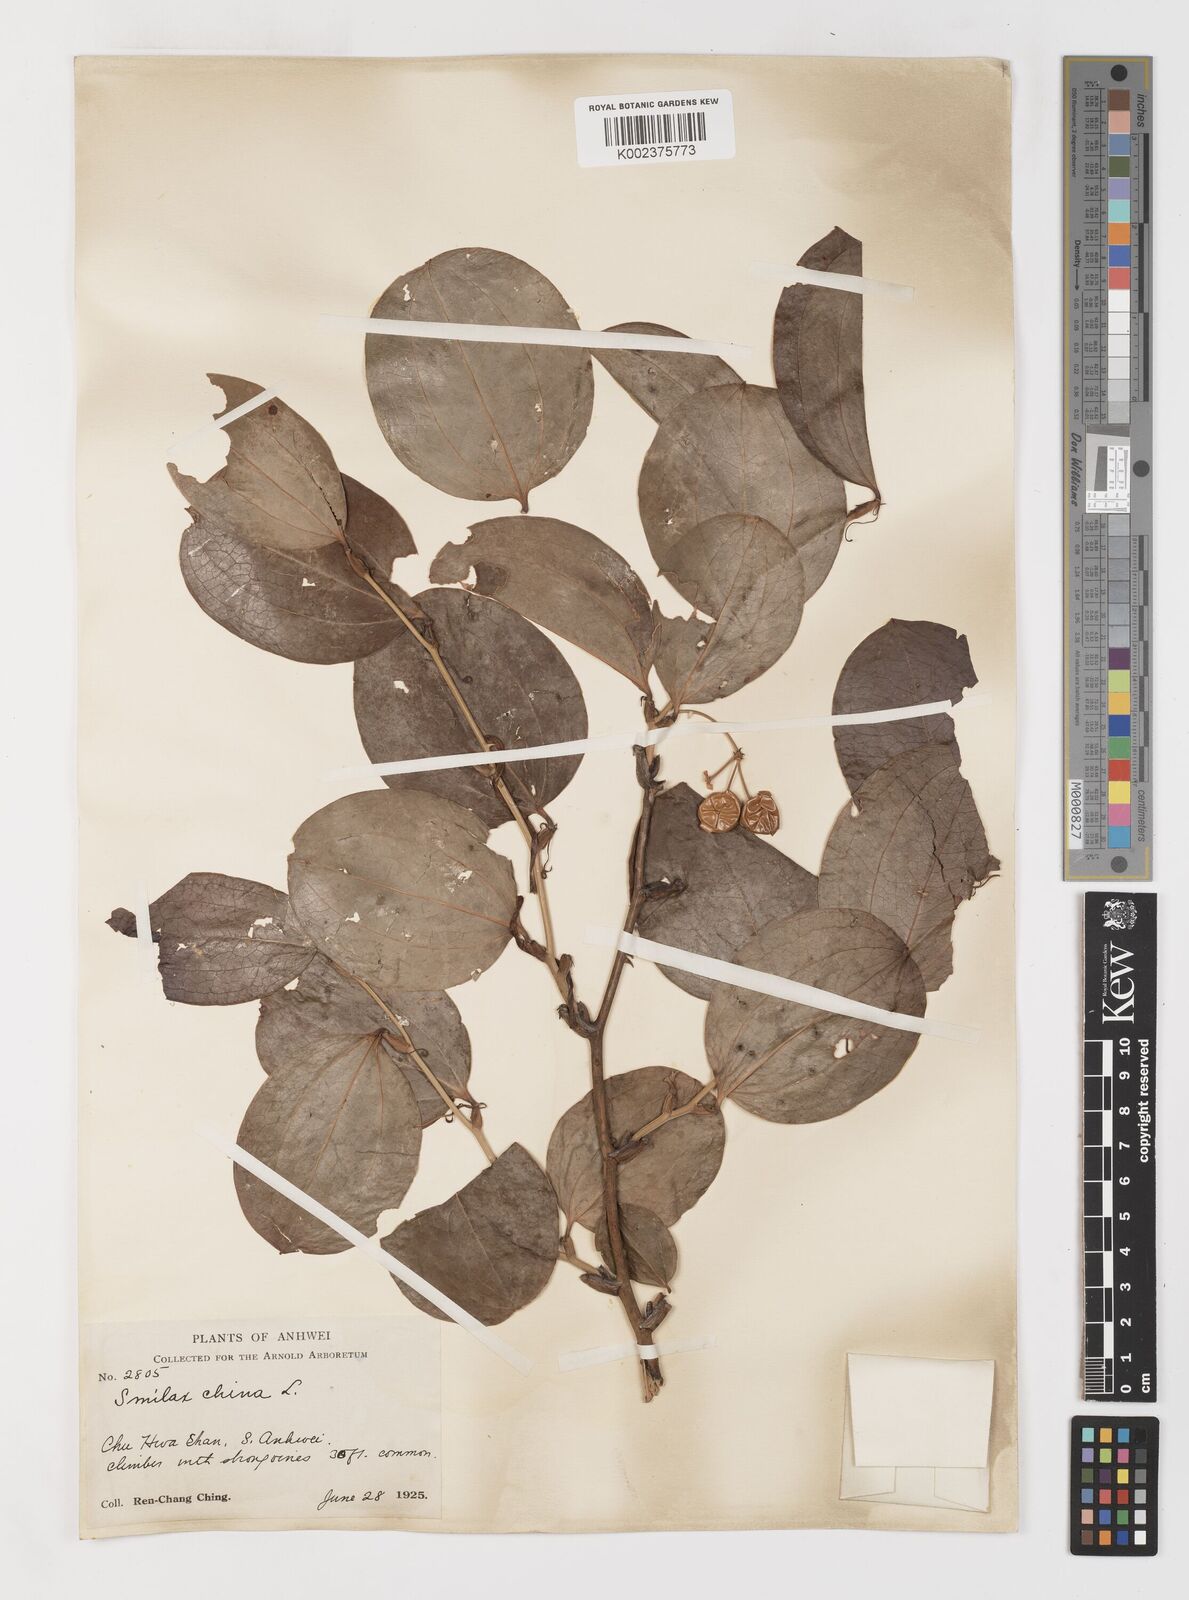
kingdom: Plantae
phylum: Tracheophyta
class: Liliopsida
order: Liliales
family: Smilacaceae
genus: Smilax
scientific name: Smilax china
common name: Chinaroot
